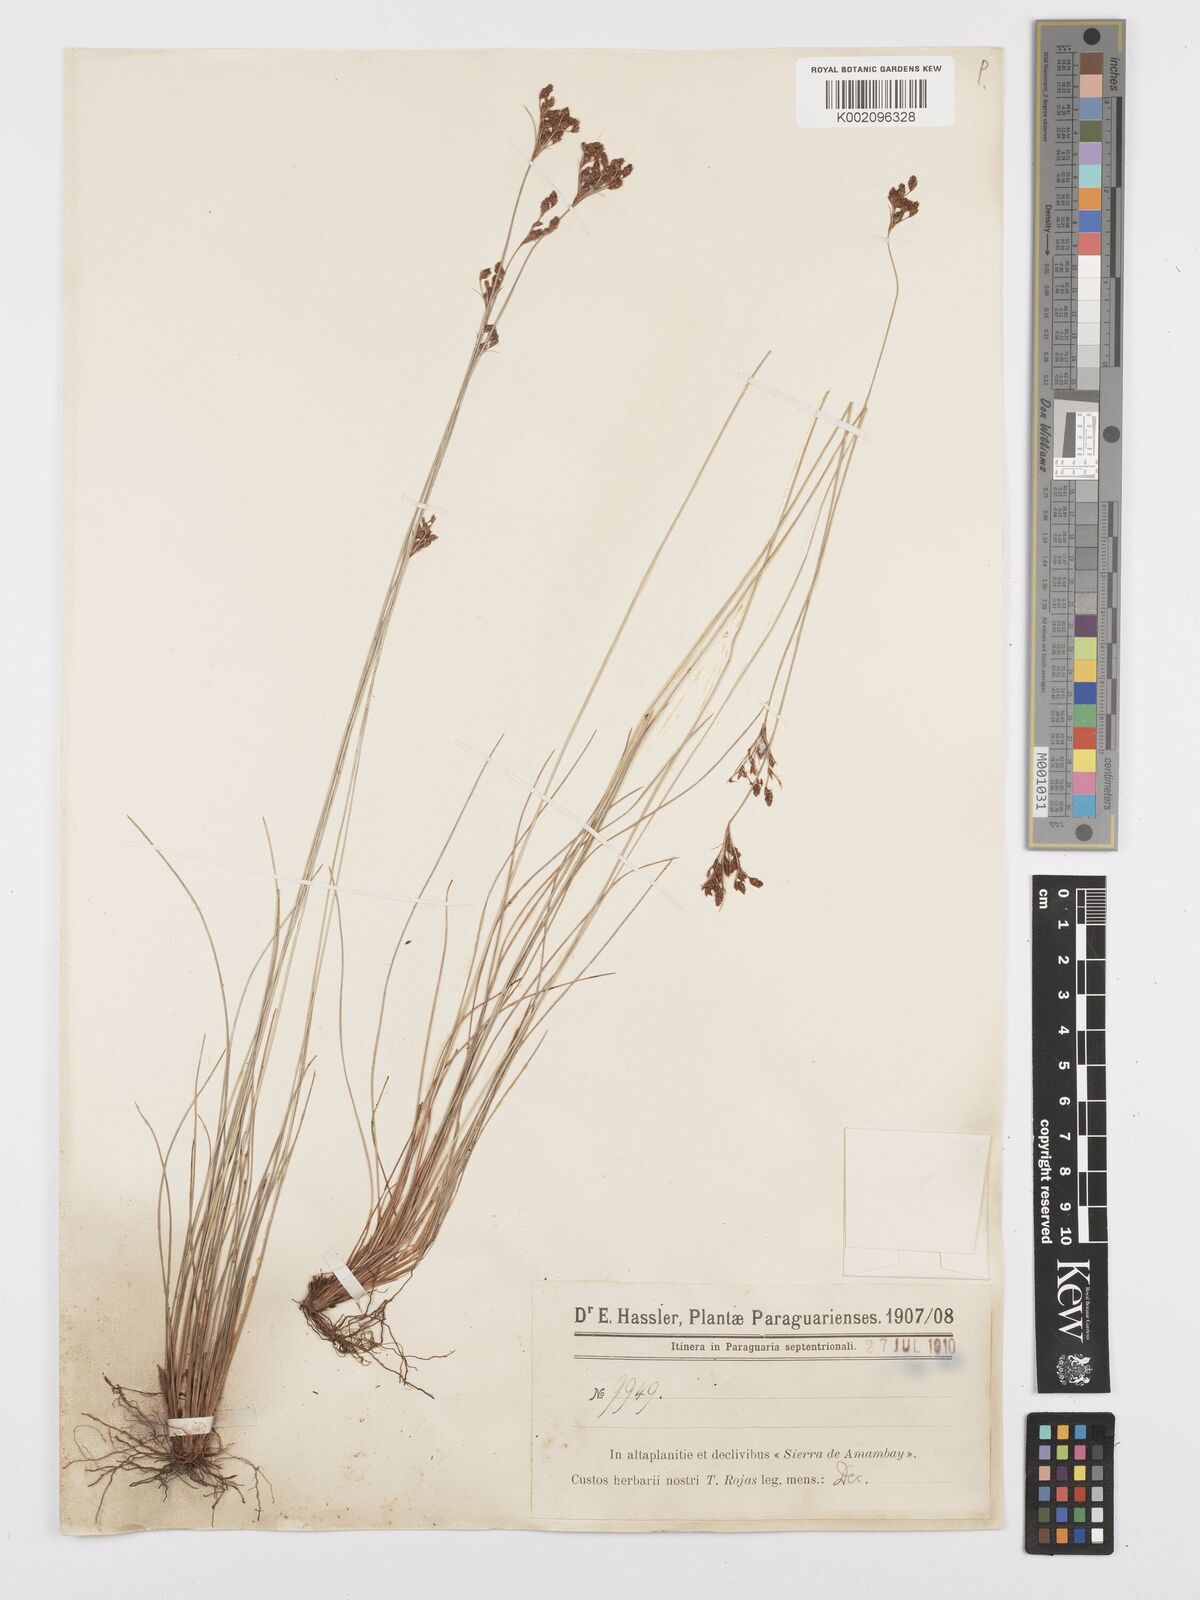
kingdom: Plantae
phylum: Tracheophyta
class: Liliopsida
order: Poales
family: Cyperaceae
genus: Bulbostylis
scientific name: Bulbostylis jacobinae
